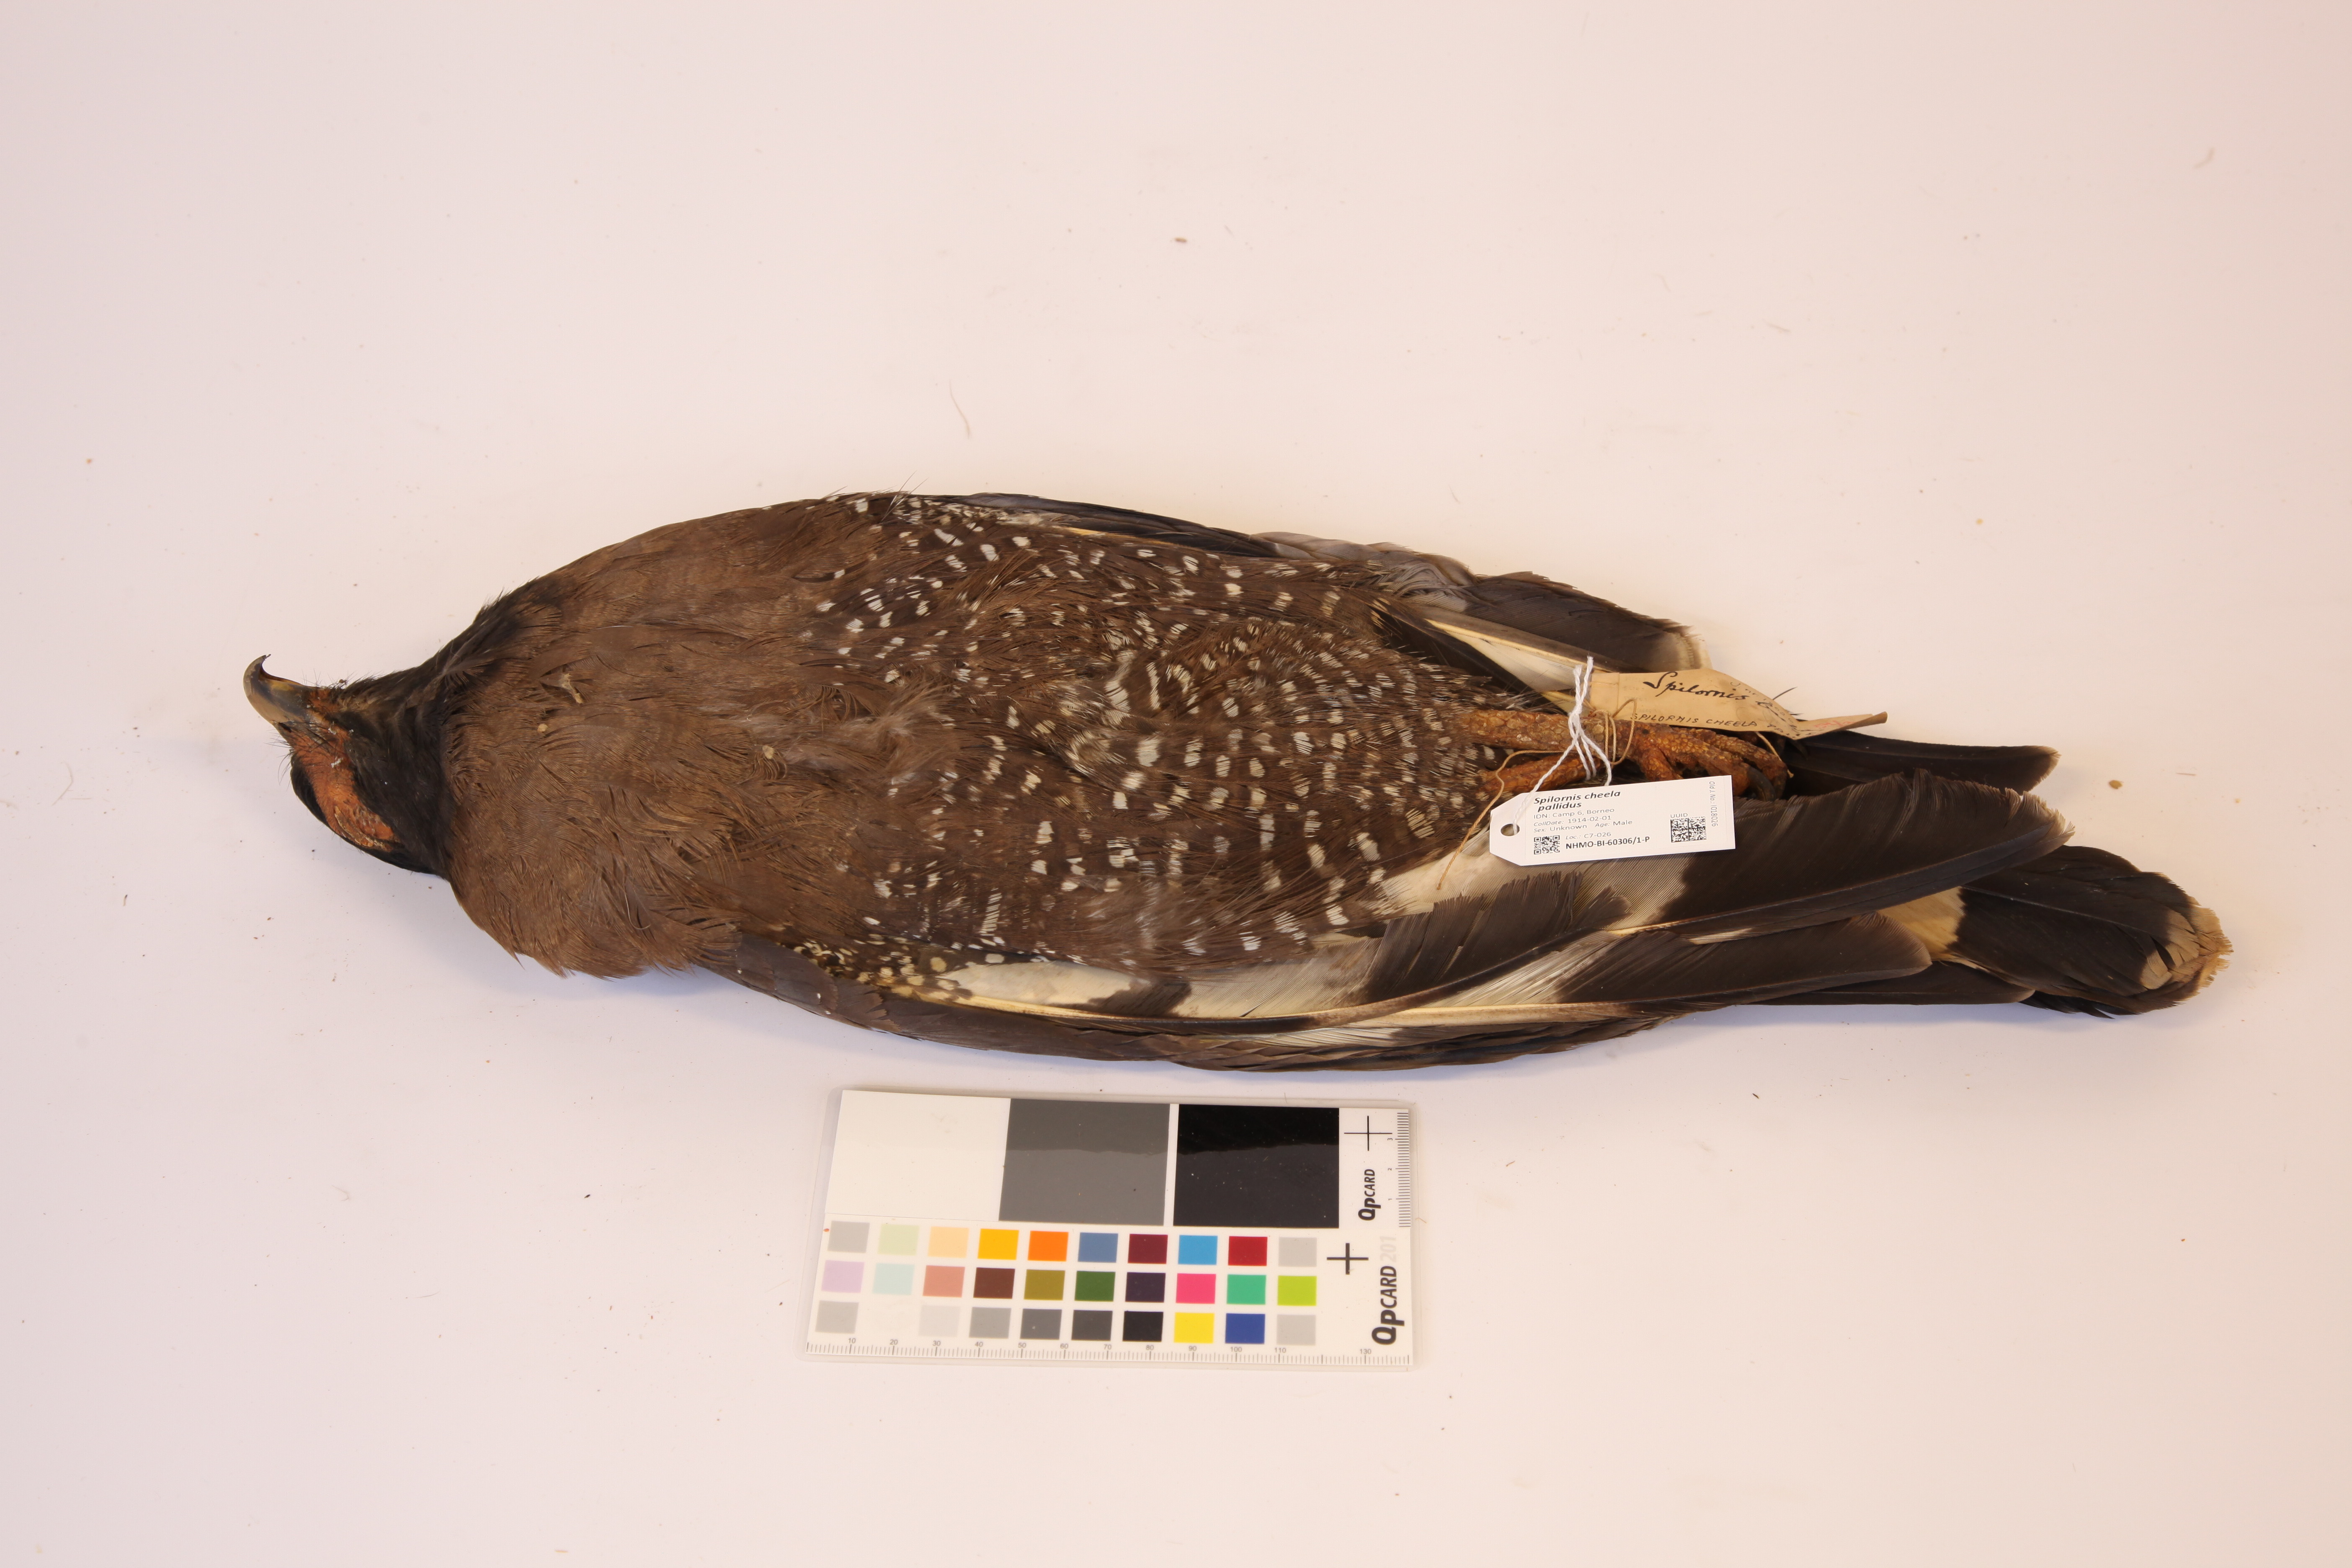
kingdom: Animalia
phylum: Chordata
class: Aves
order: Accipitriformes
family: Accipitridae
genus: Spilornis
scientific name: Spilornis cheela
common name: Crested serpent eagle
